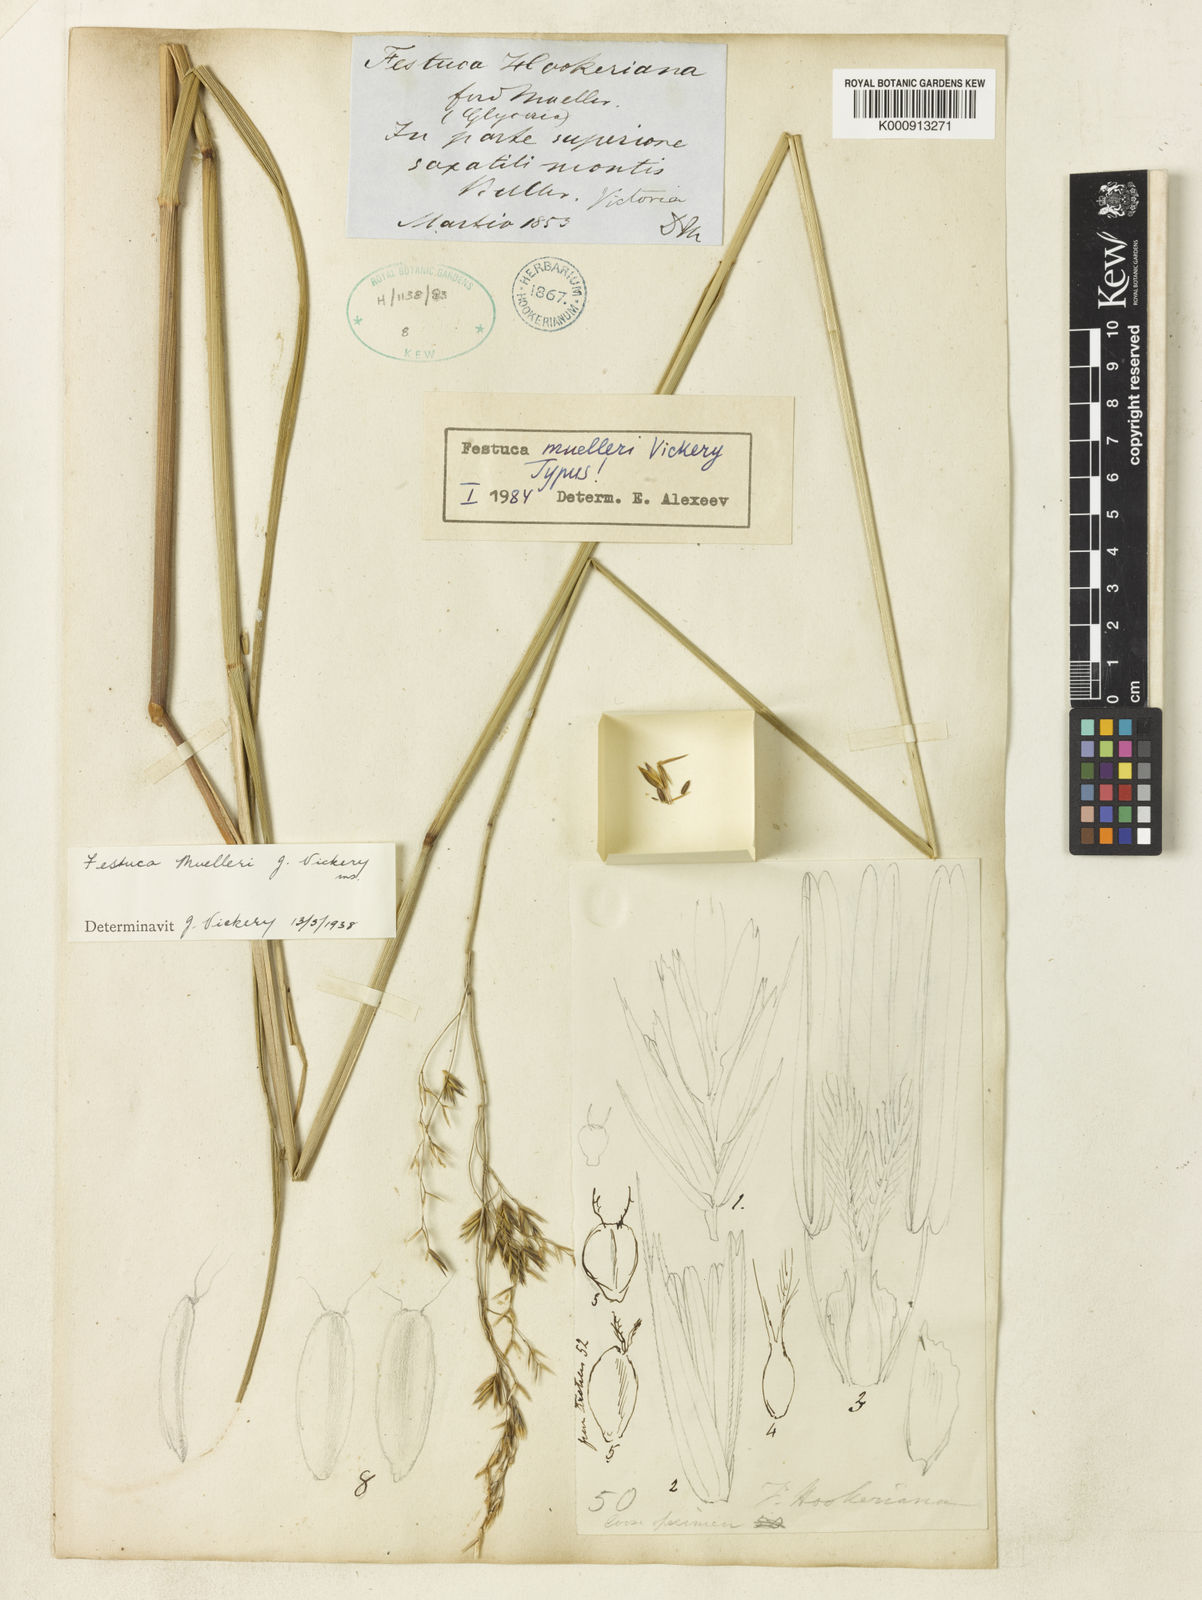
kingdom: Plantae
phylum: Tracheophyta
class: Liliopsida
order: Poales
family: Poaceae
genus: Festuca
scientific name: Festuca muelleri
